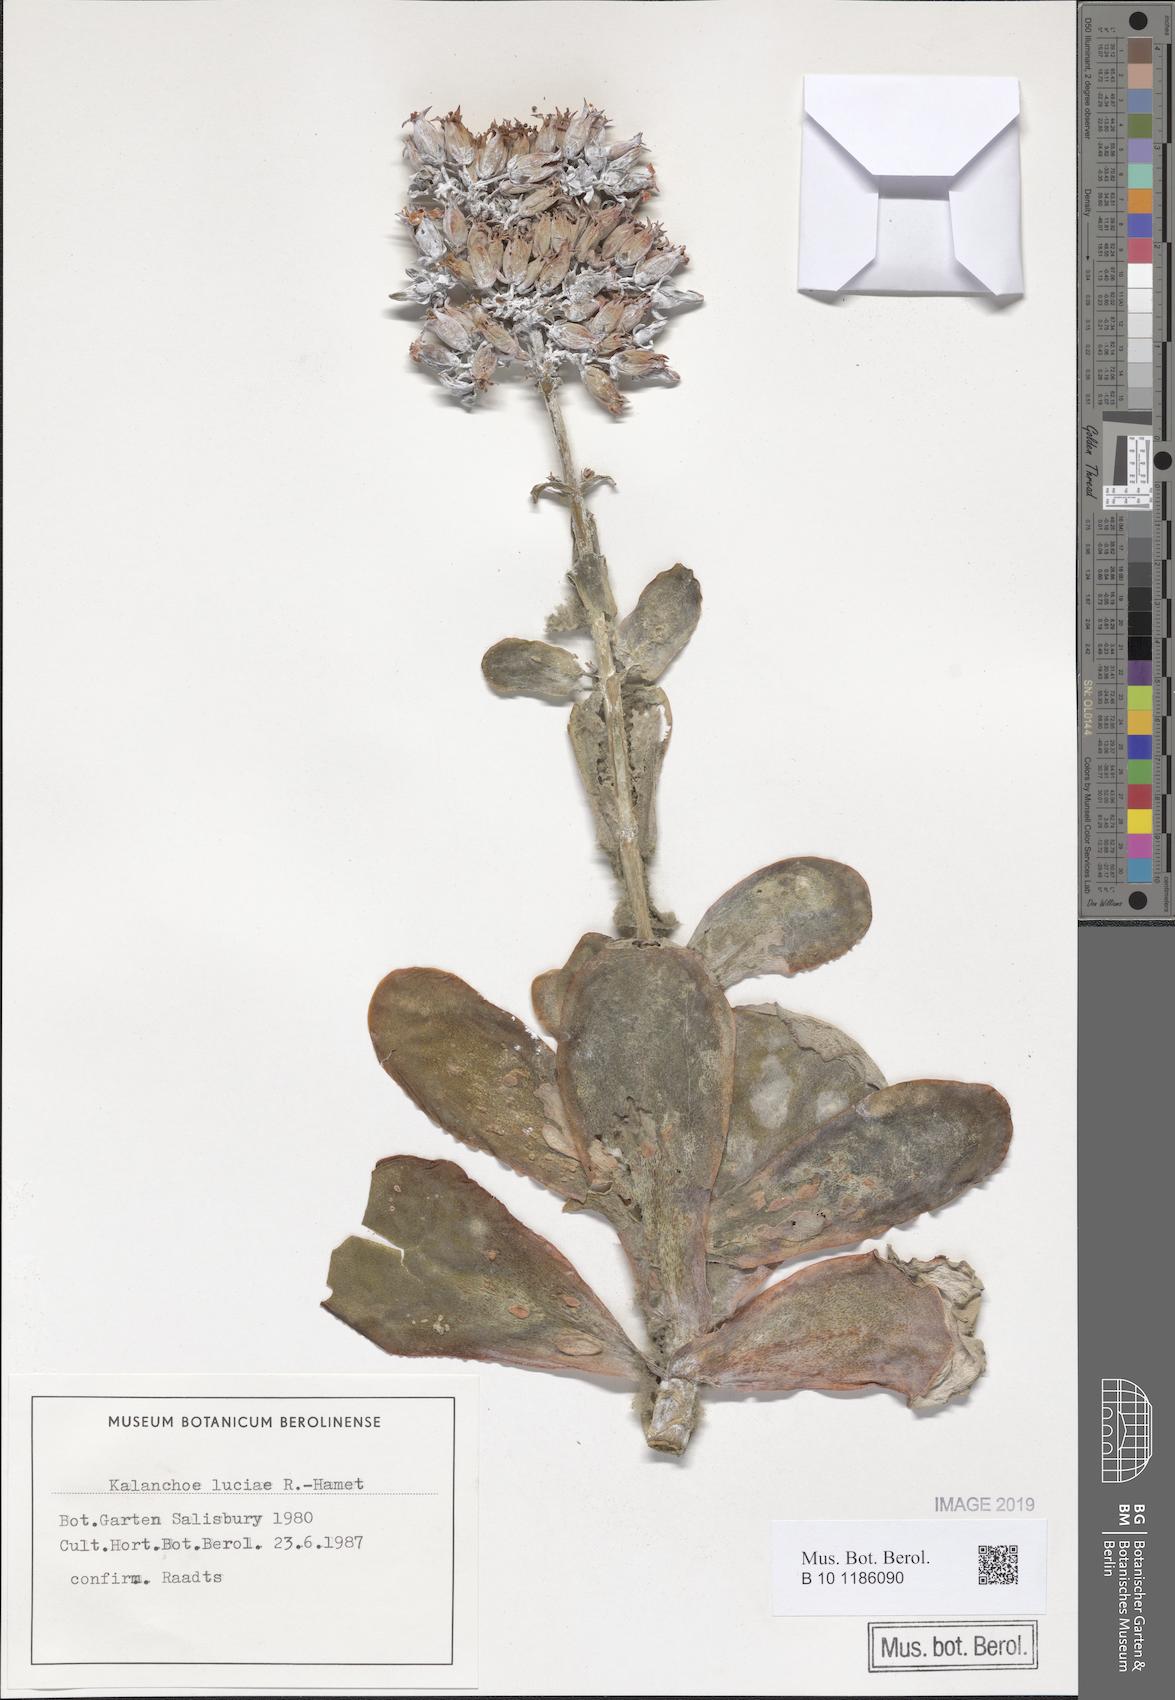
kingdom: Plantae
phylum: Tracheophyta
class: Magnoliopsida
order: Saxifragales
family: Crassulaceae
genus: Kalanchoe
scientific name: Kalanchoe luciae
